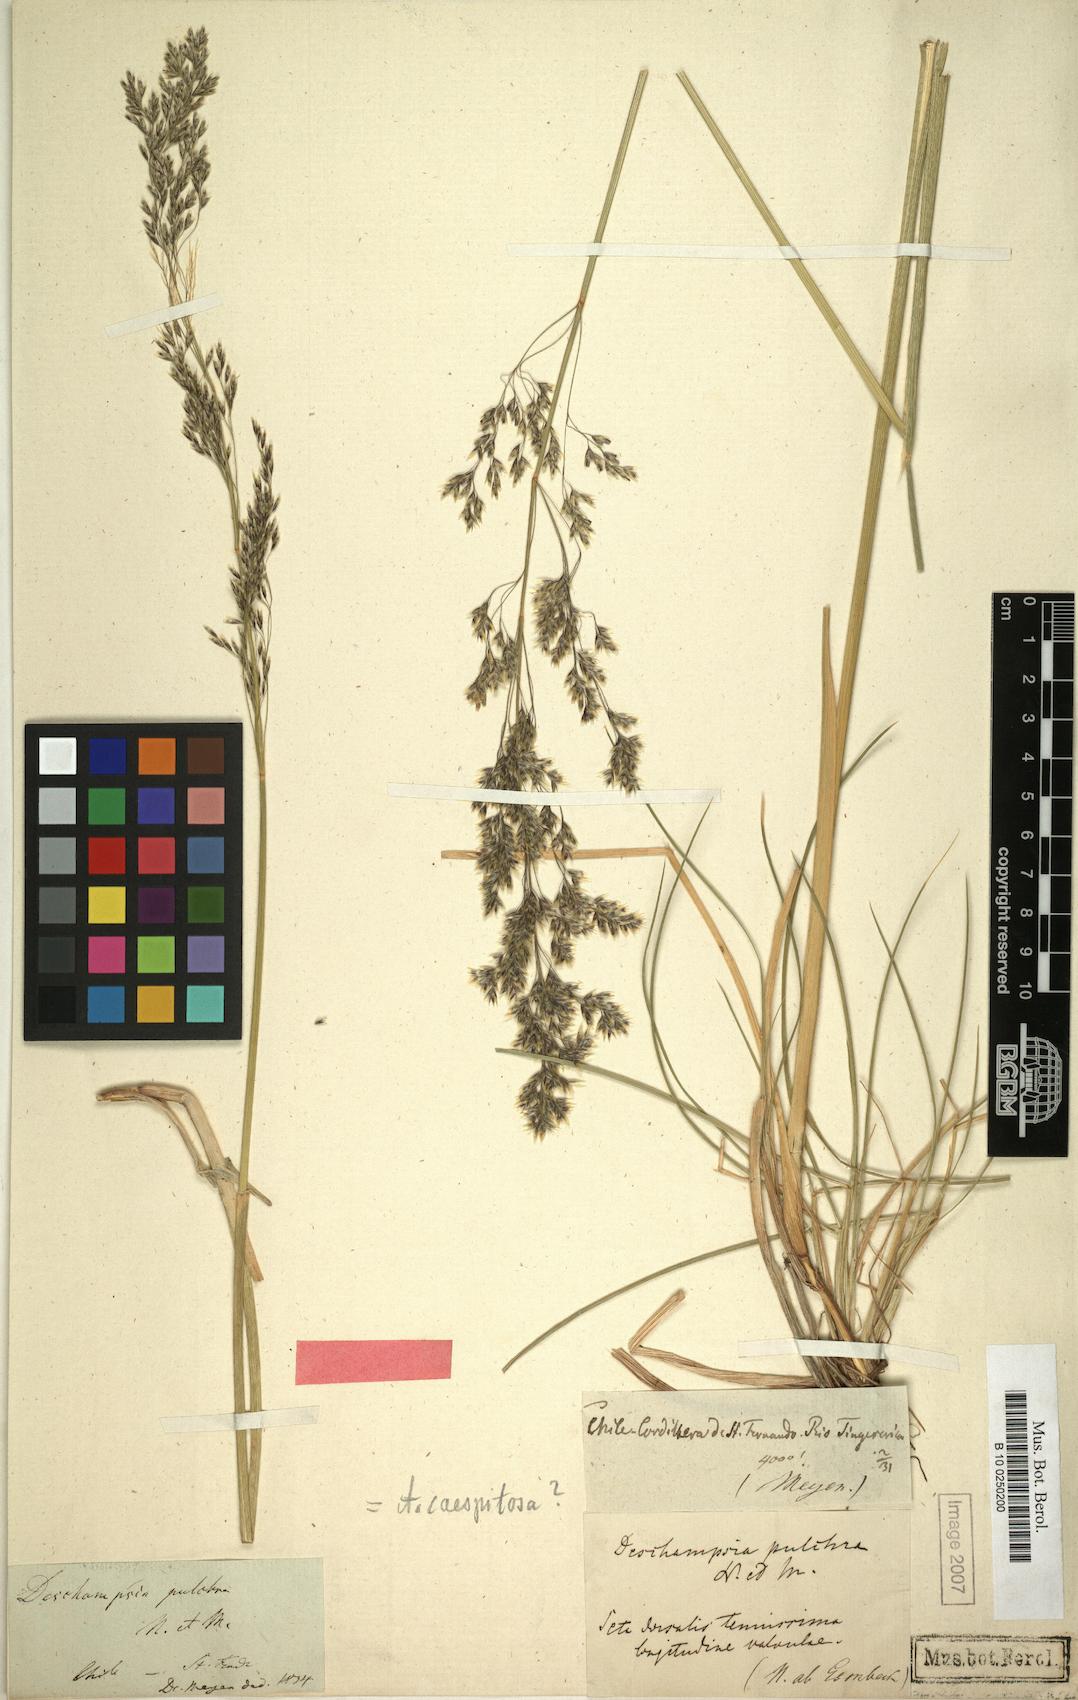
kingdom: Plantae
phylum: Tracheophyta
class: Liliopsida
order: Poales
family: Poaceae
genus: Deschampsia
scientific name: Deschampsia cespitosa
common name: Tufted hair-grass
